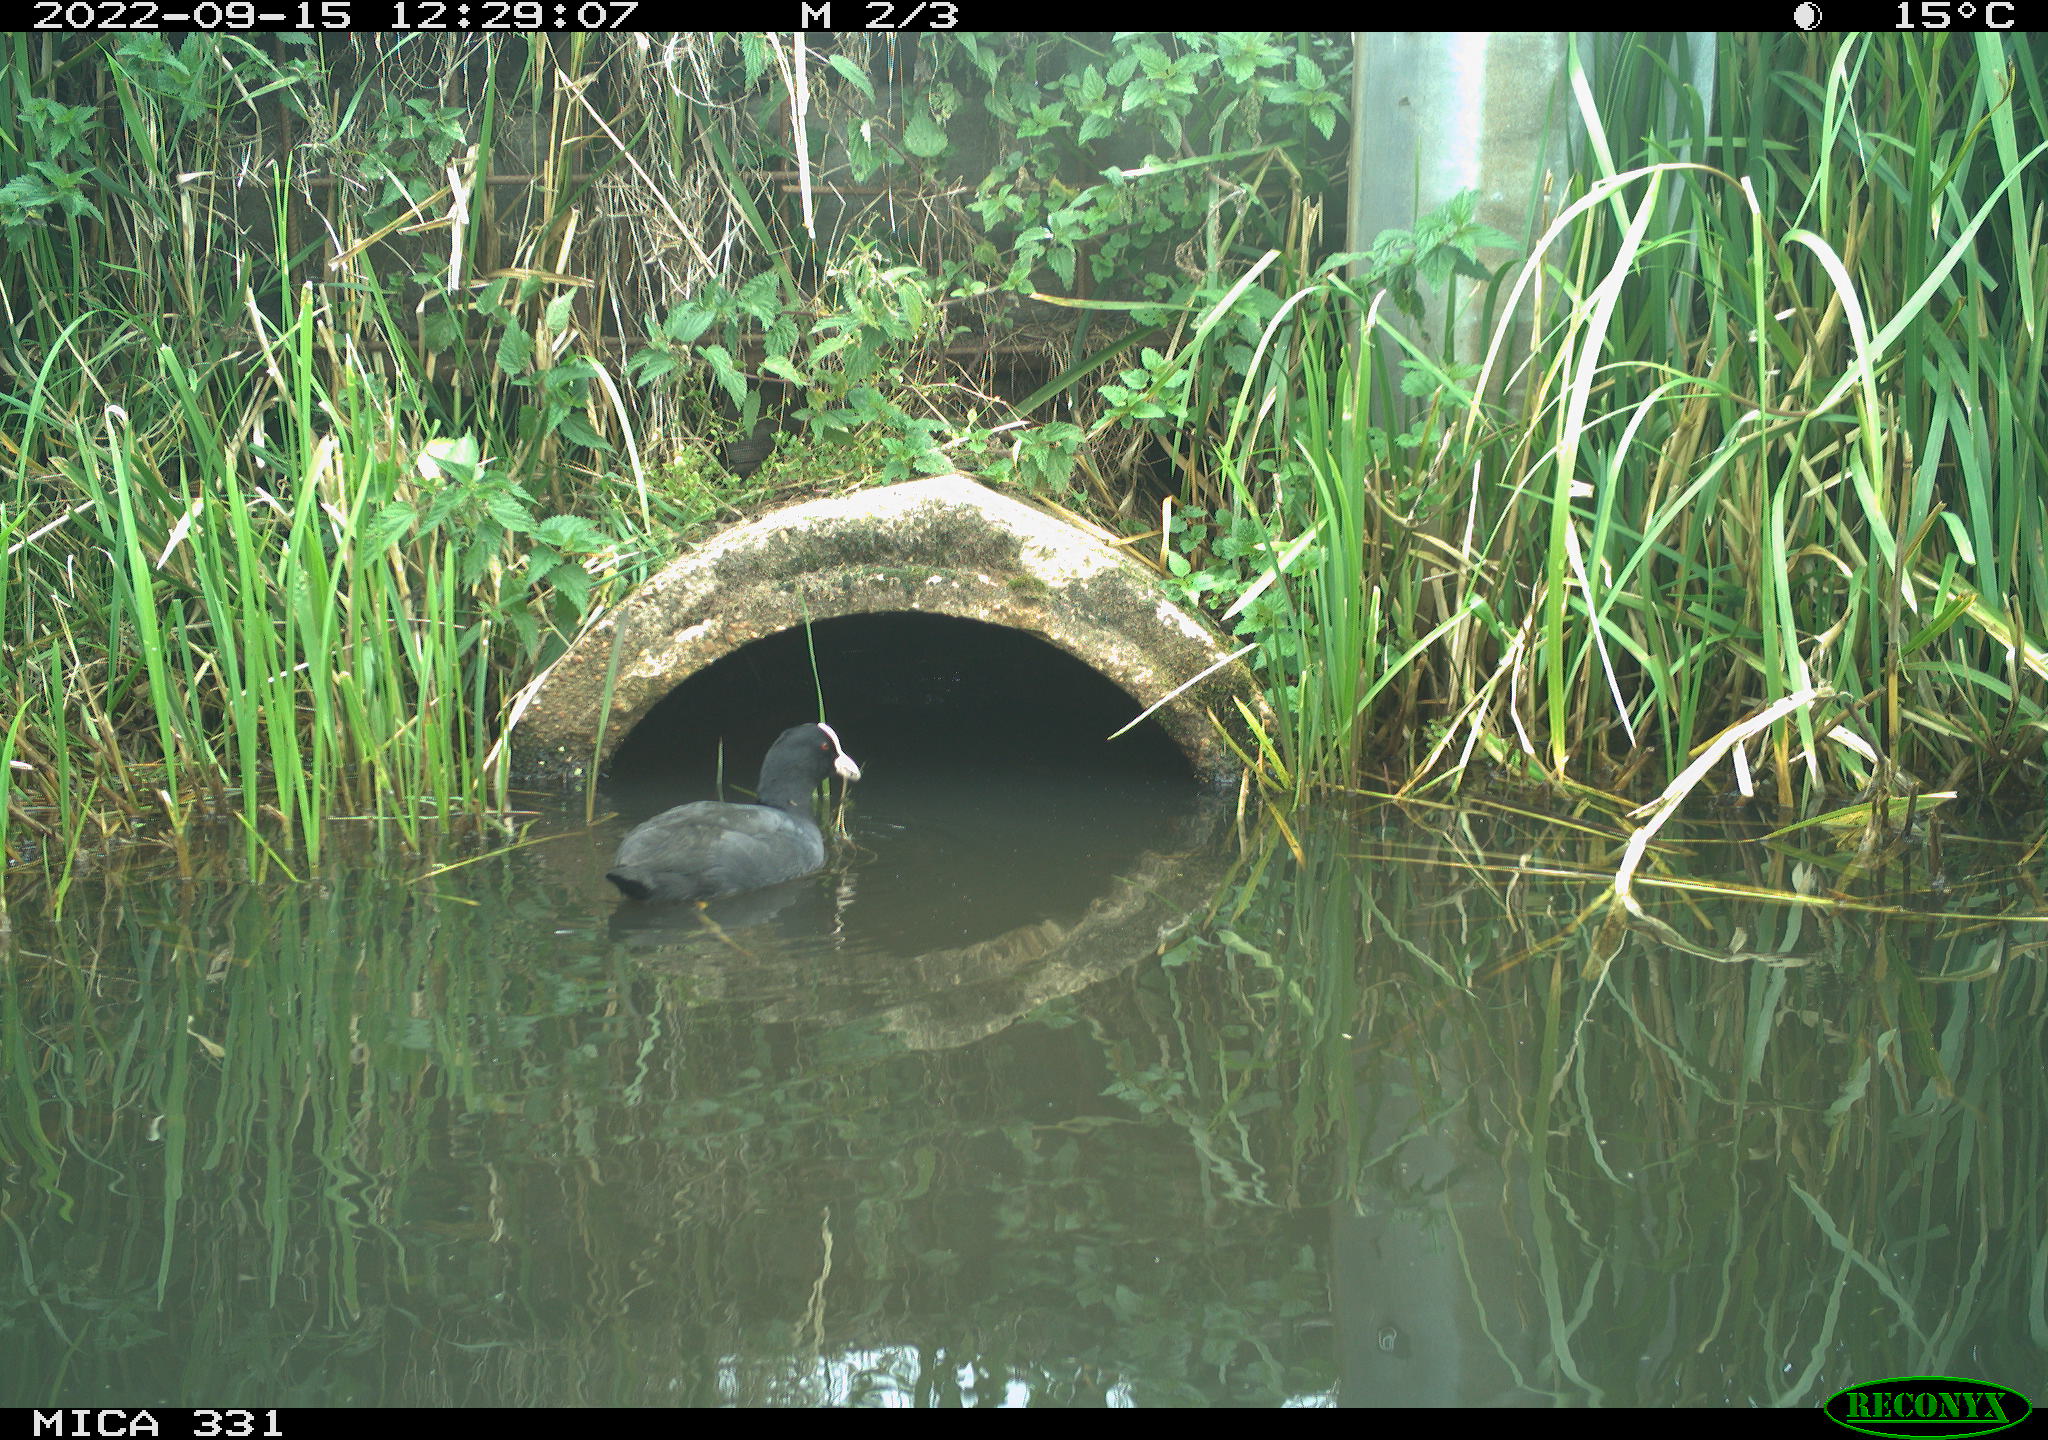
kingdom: Animalia
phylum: Chordata
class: Aves
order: Gruiformes
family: Rallidae
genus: Fulica
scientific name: Fulica atra
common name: Eurasian coot
